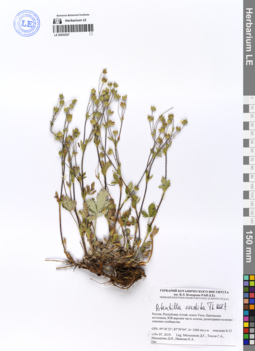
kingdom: Plantae
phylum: Tracheophyta
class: Magnoliopsida
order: Rosales
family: Rosaceae
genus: Potentilla
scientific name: Potentilla evestita
